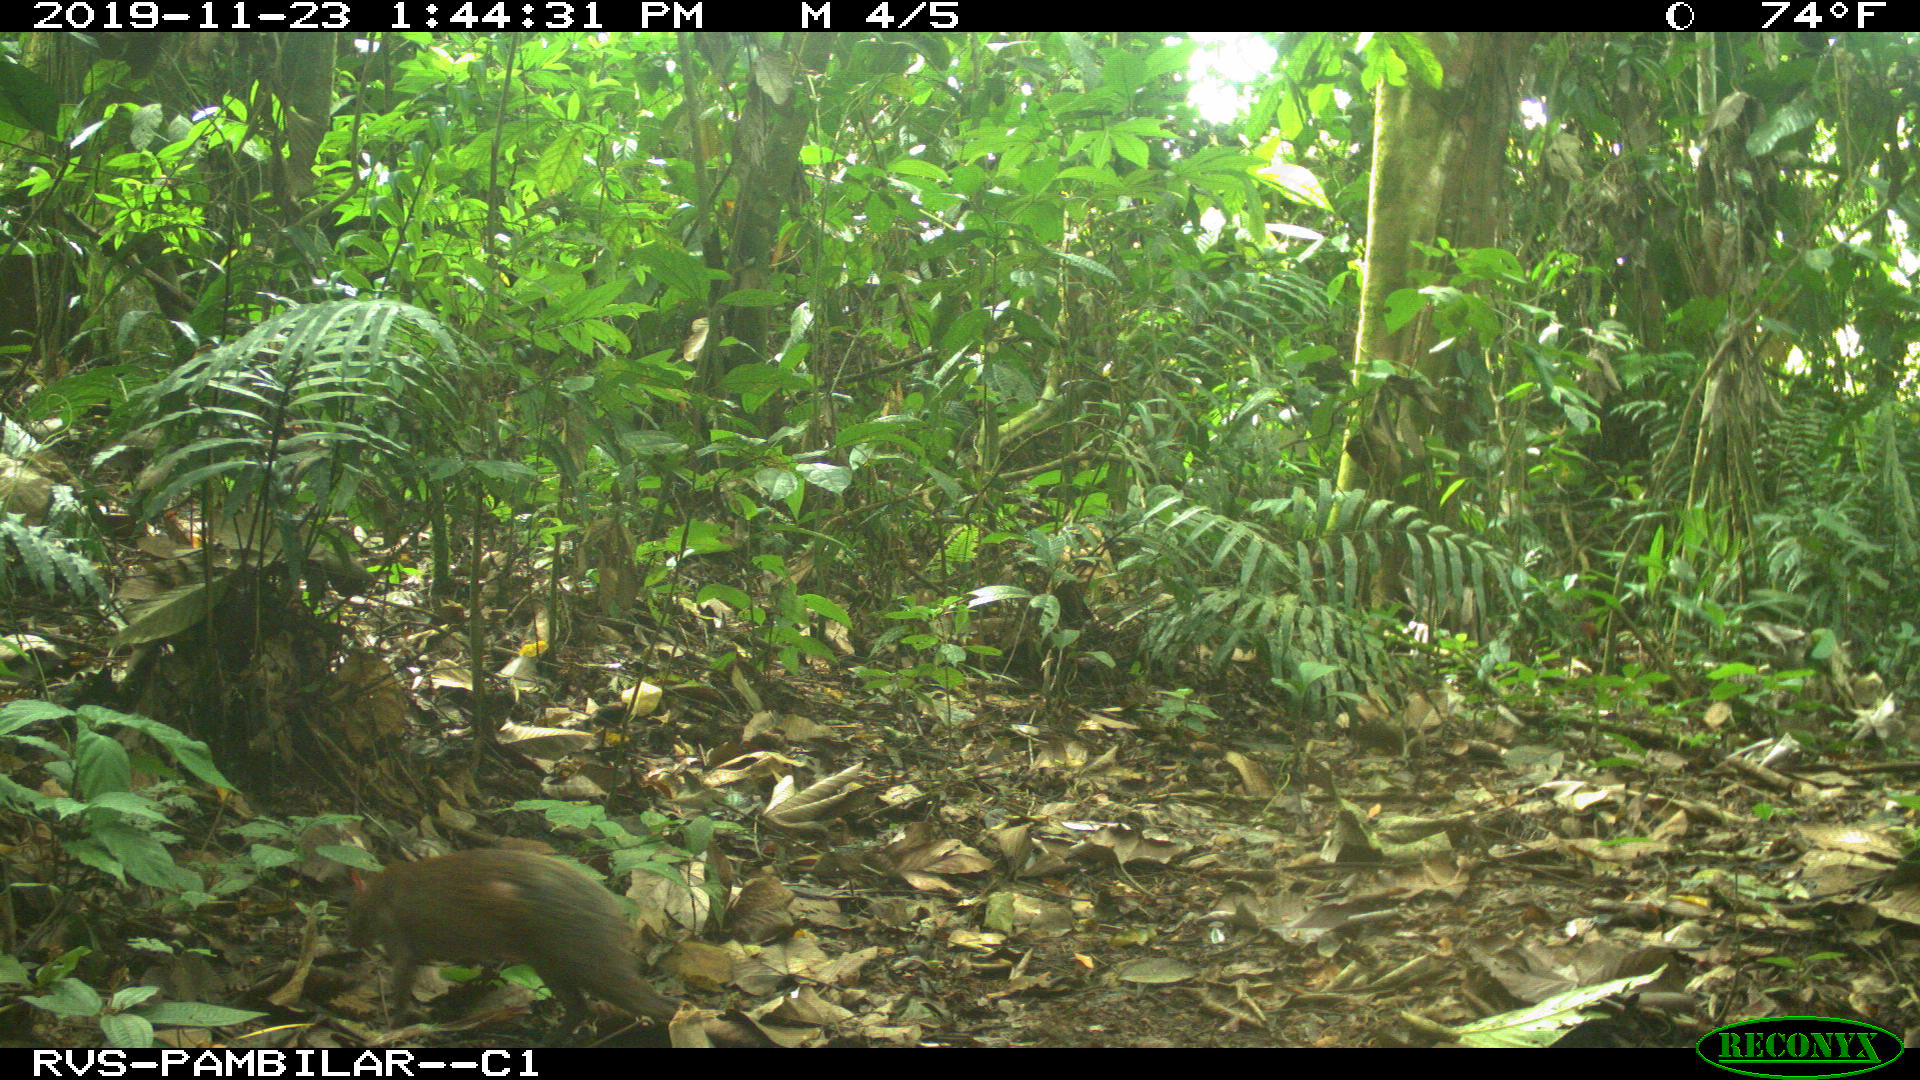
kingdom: Animalia
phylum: Chordata
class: Mammalia
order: Rodentia
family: Dasyproctidae
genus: Dasyprocta
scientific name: Dasyprocta punctata
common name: Central american agouti
